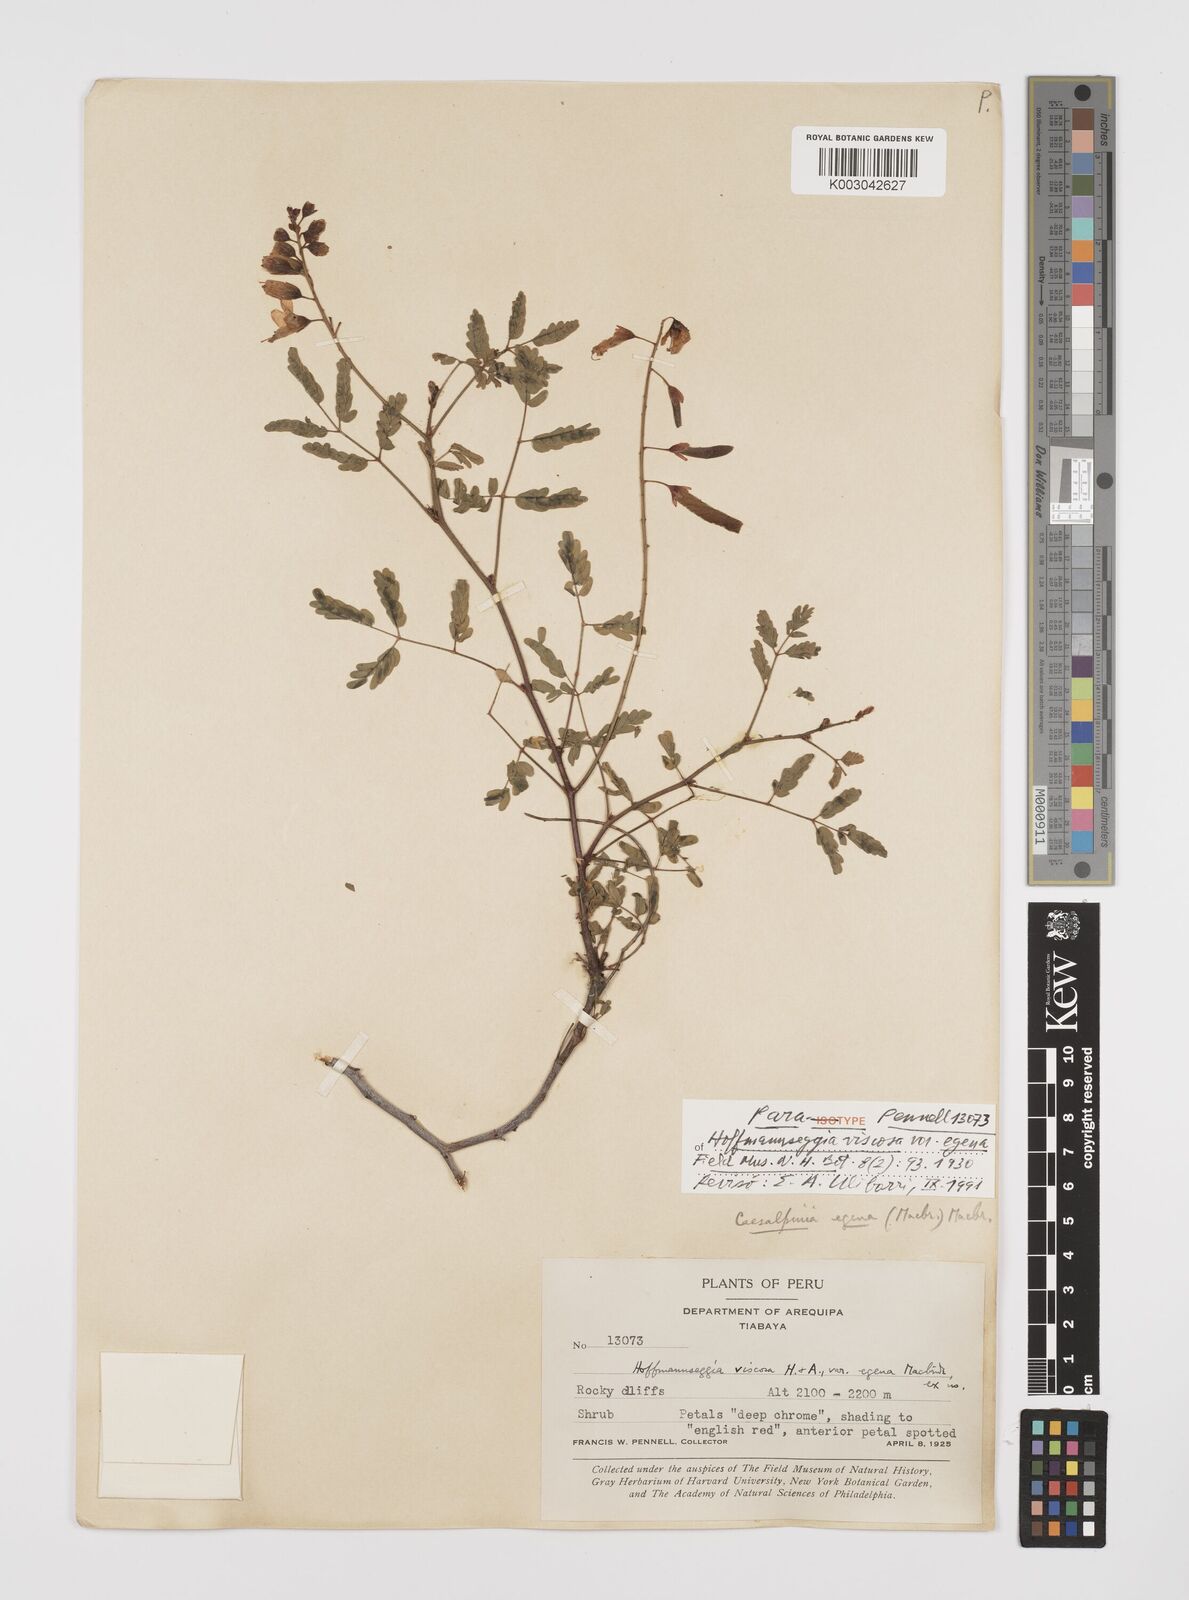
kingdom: Plantae
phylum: Tracheophyta
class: Magnoliopsida
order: Fabales
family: Fabaceae
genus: Hoffmannseggia
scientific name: Hoffmannseggia viscosa
